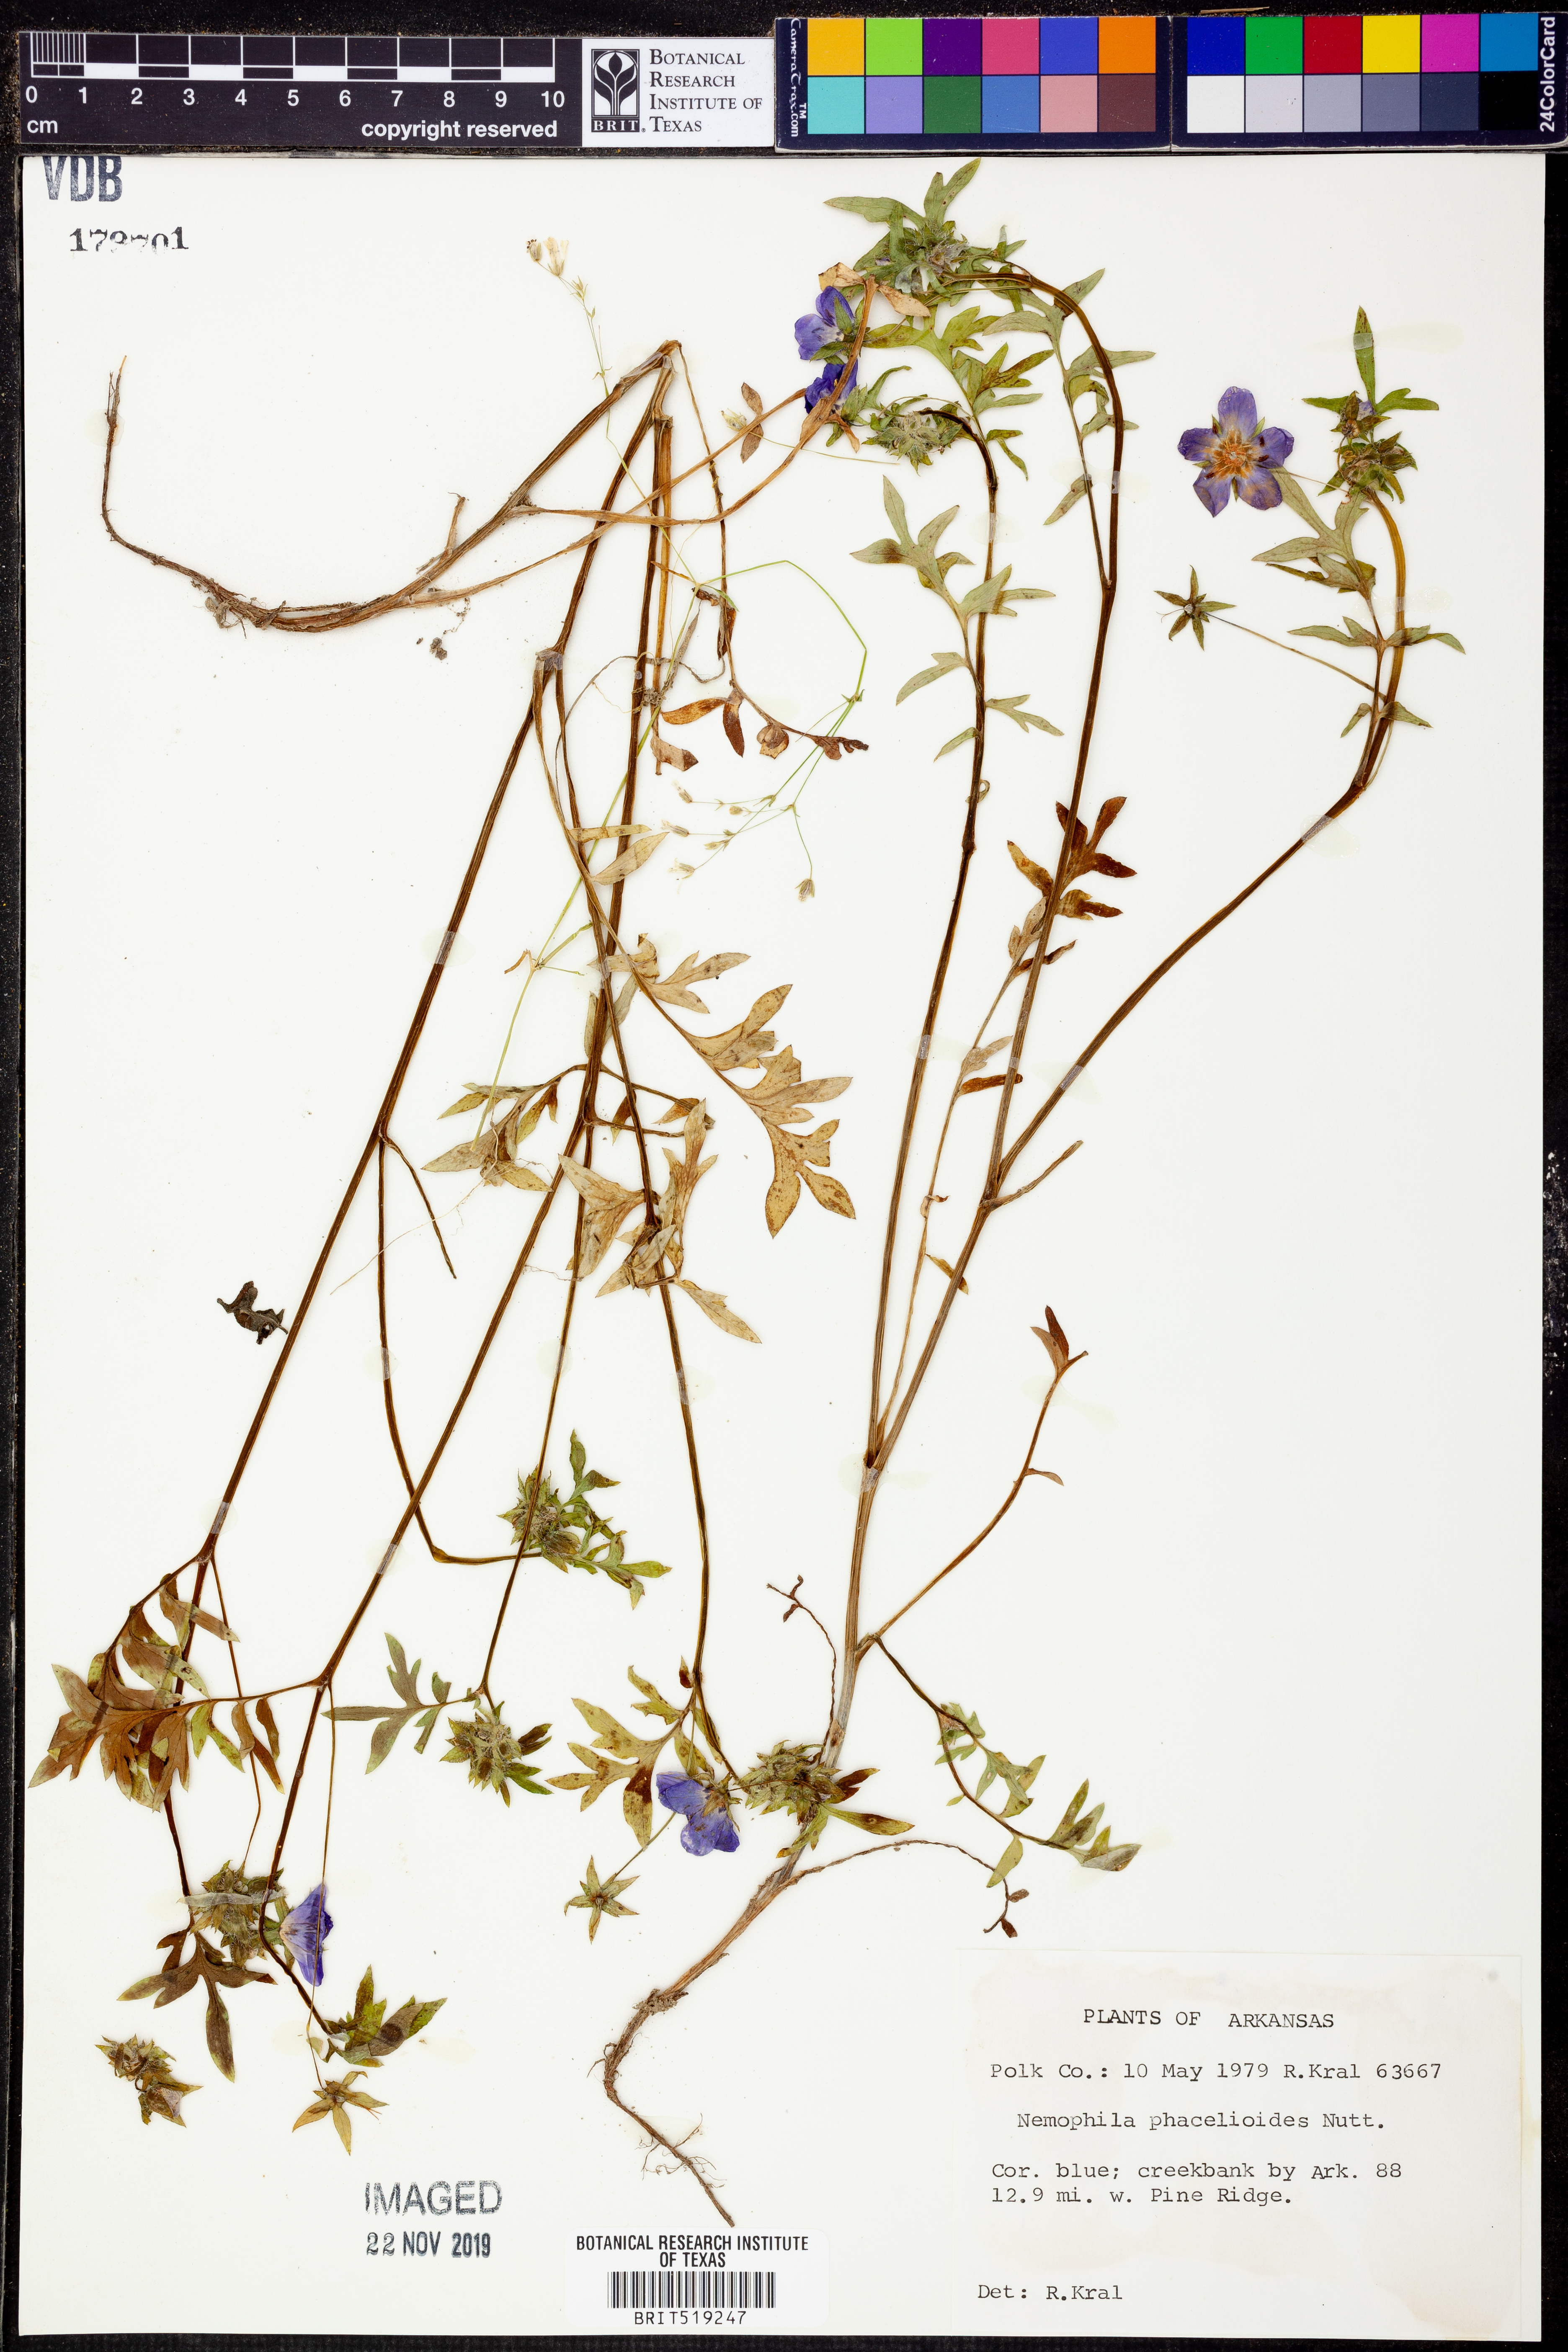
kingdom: Plantae
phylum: Tracheophyta
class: Magnoliopsida
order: Boraginales
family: Hydrophyllaceae
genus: Nemophila
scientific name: Nemophila phacelioides
